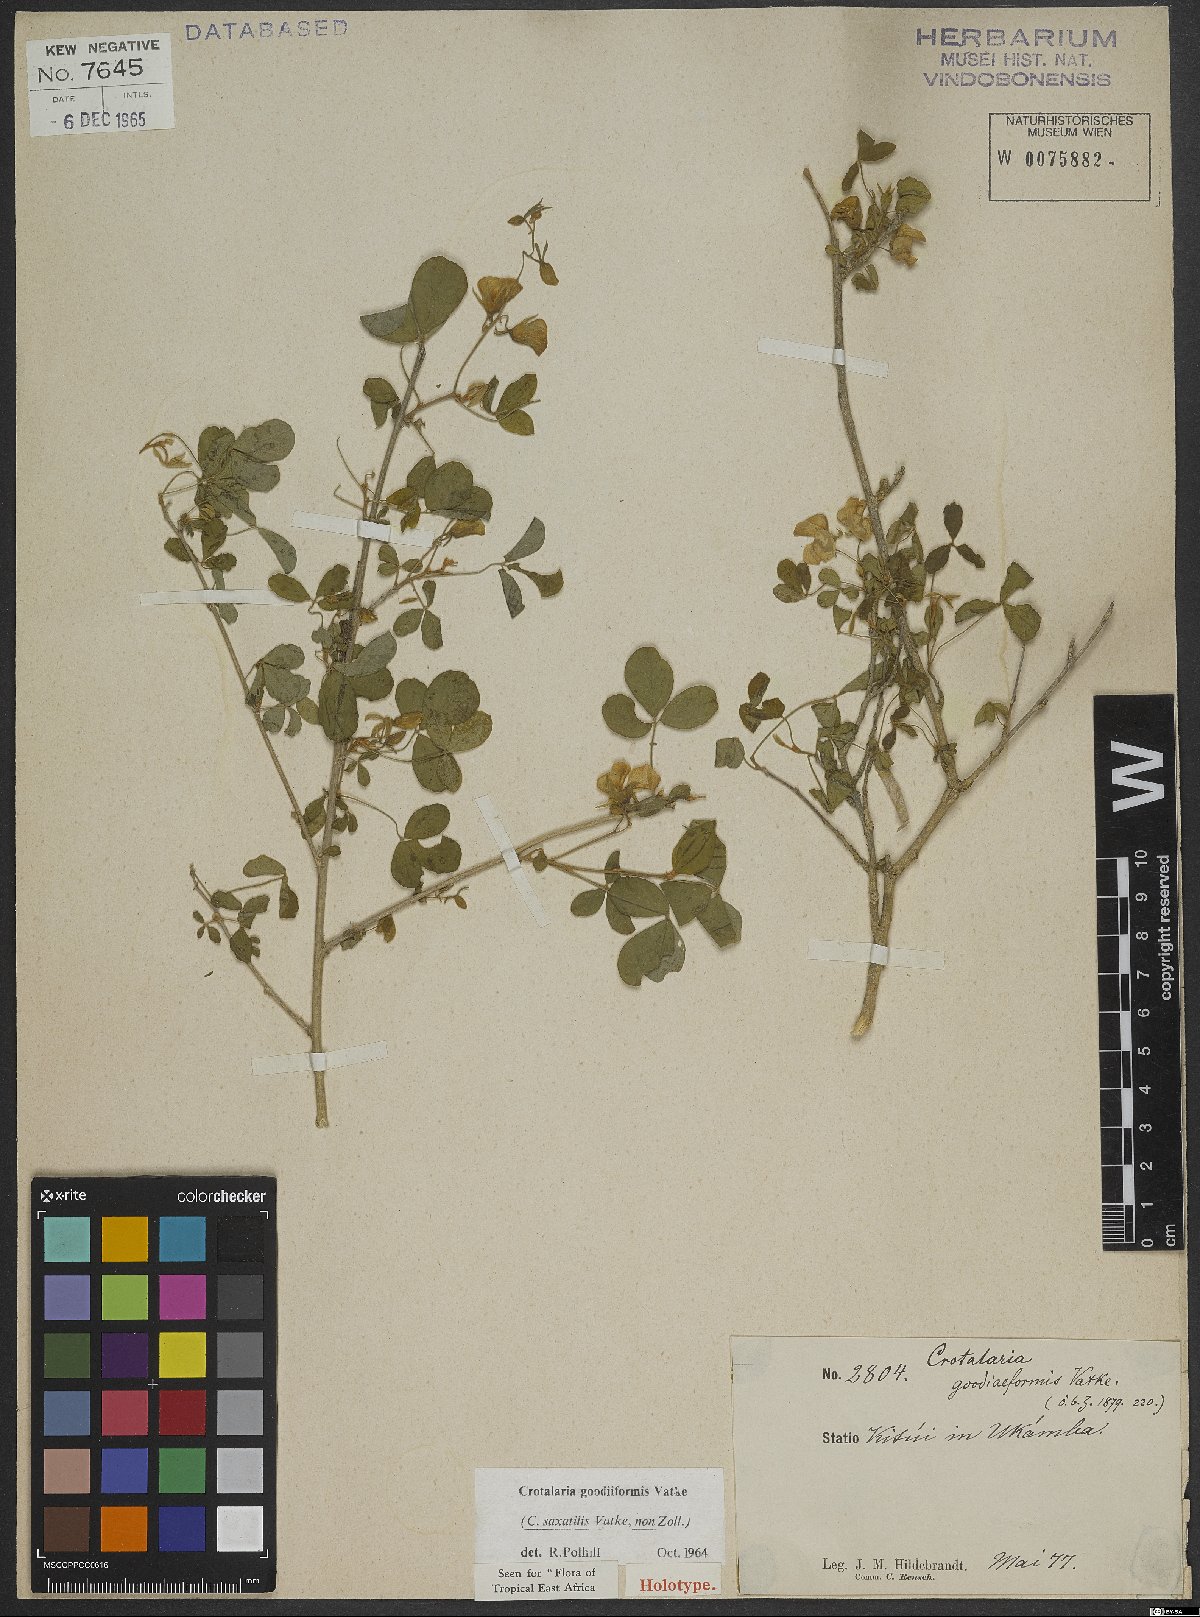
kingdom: Plantae
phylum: Tracheophyta
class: Magnoliopsida
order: Fabales
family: Fabaceae
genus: Crotalaria
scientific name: Crotalaria goodiiformis
